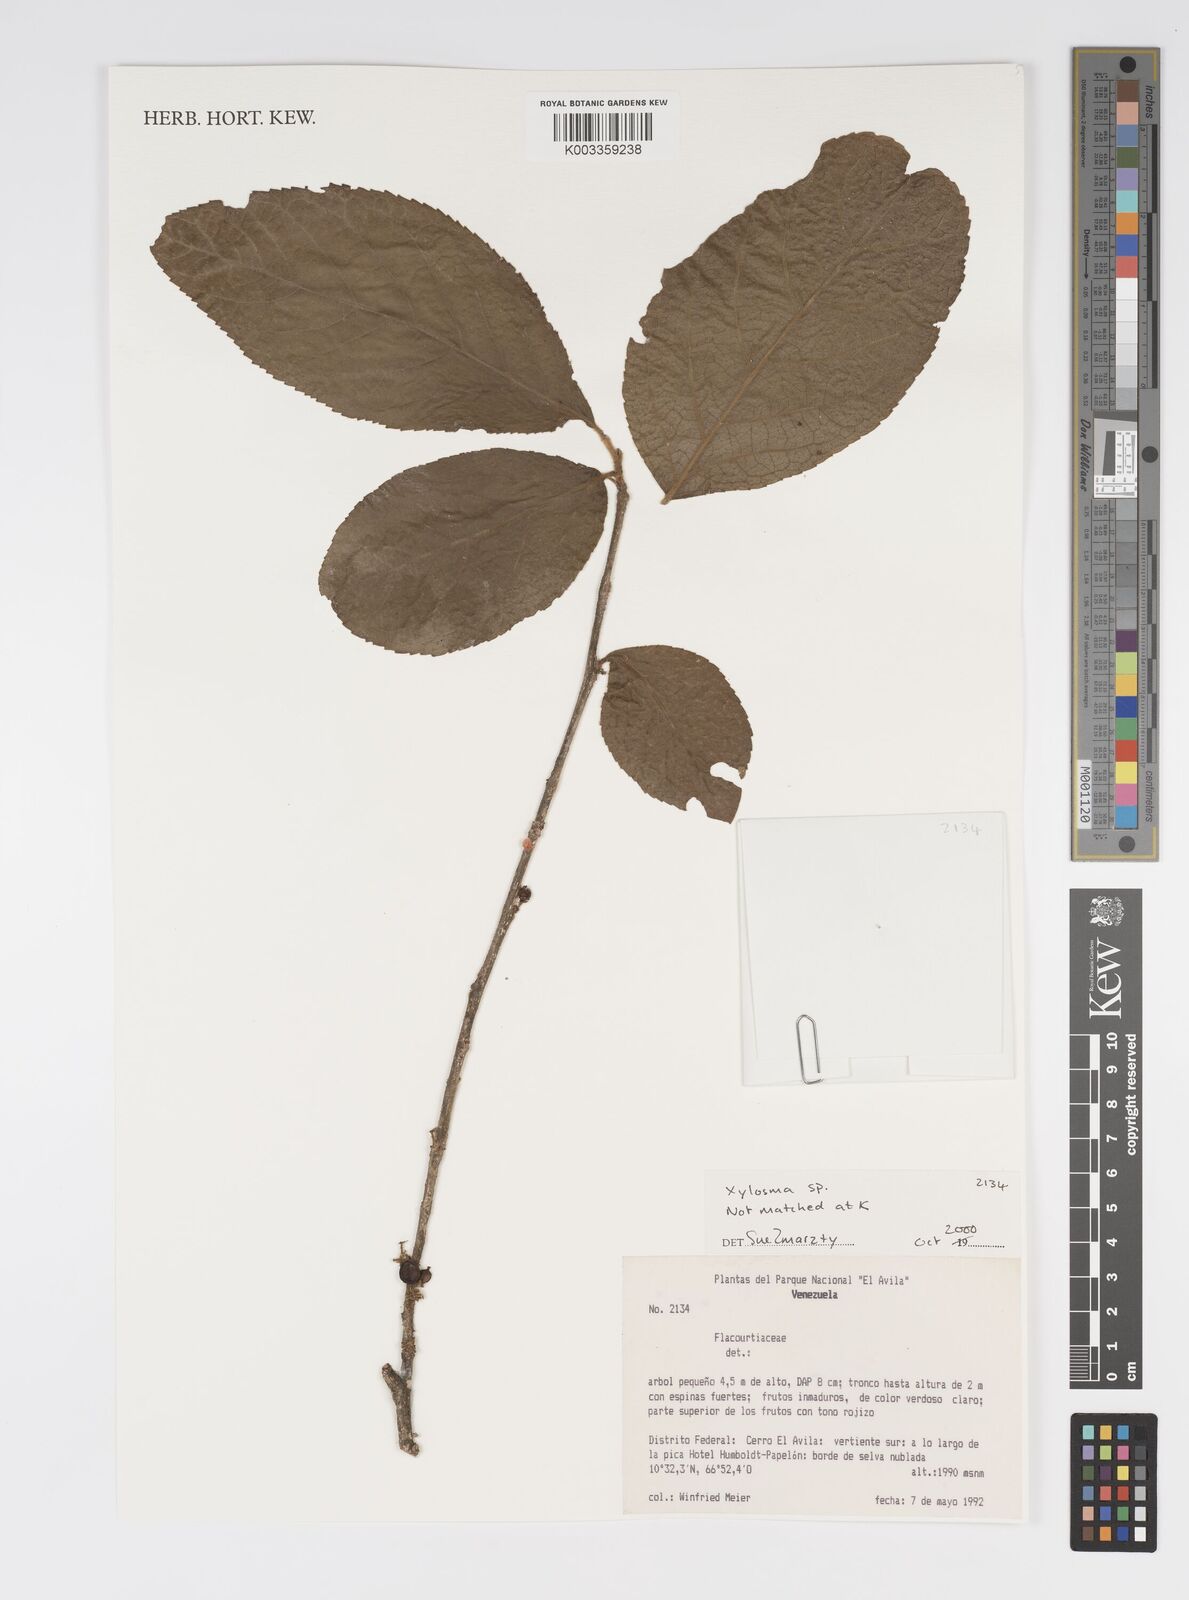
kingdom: Plantae
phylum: Tracheophyta
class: Magnoliopsida
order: Malpighiales
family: Salicaceae
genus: Xylosma
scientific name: Xylosma
